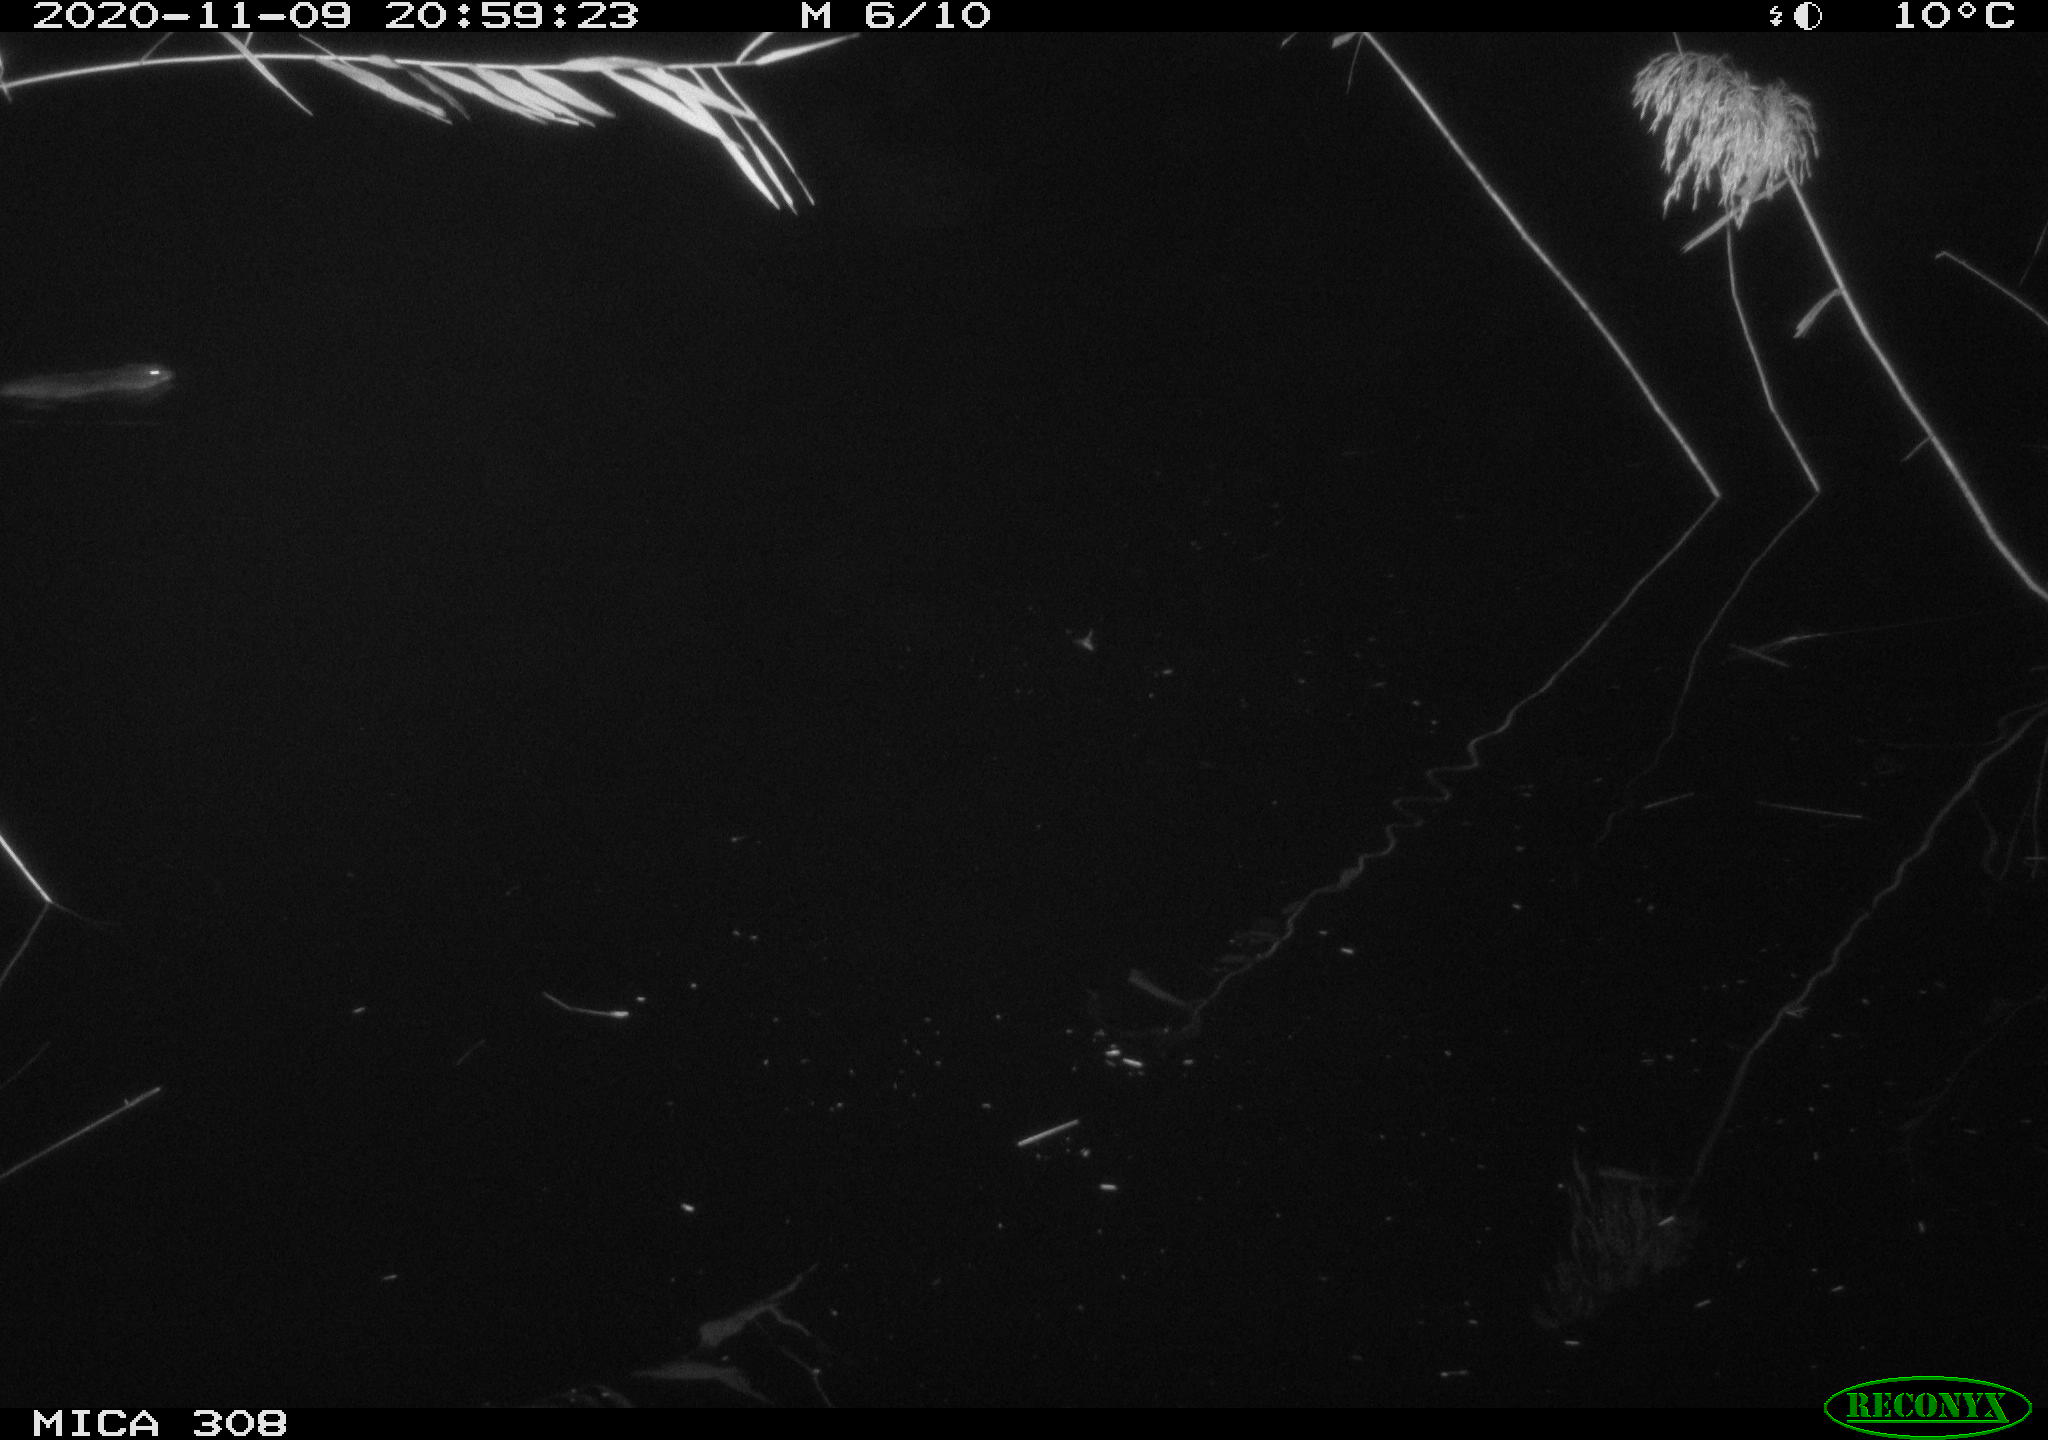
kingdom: Animalia
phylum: Chordata
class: Mammalia
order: Rodentia
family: Cricetidae
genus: Ondatra
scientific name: Ondatra zibethicus
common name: Muskrat
